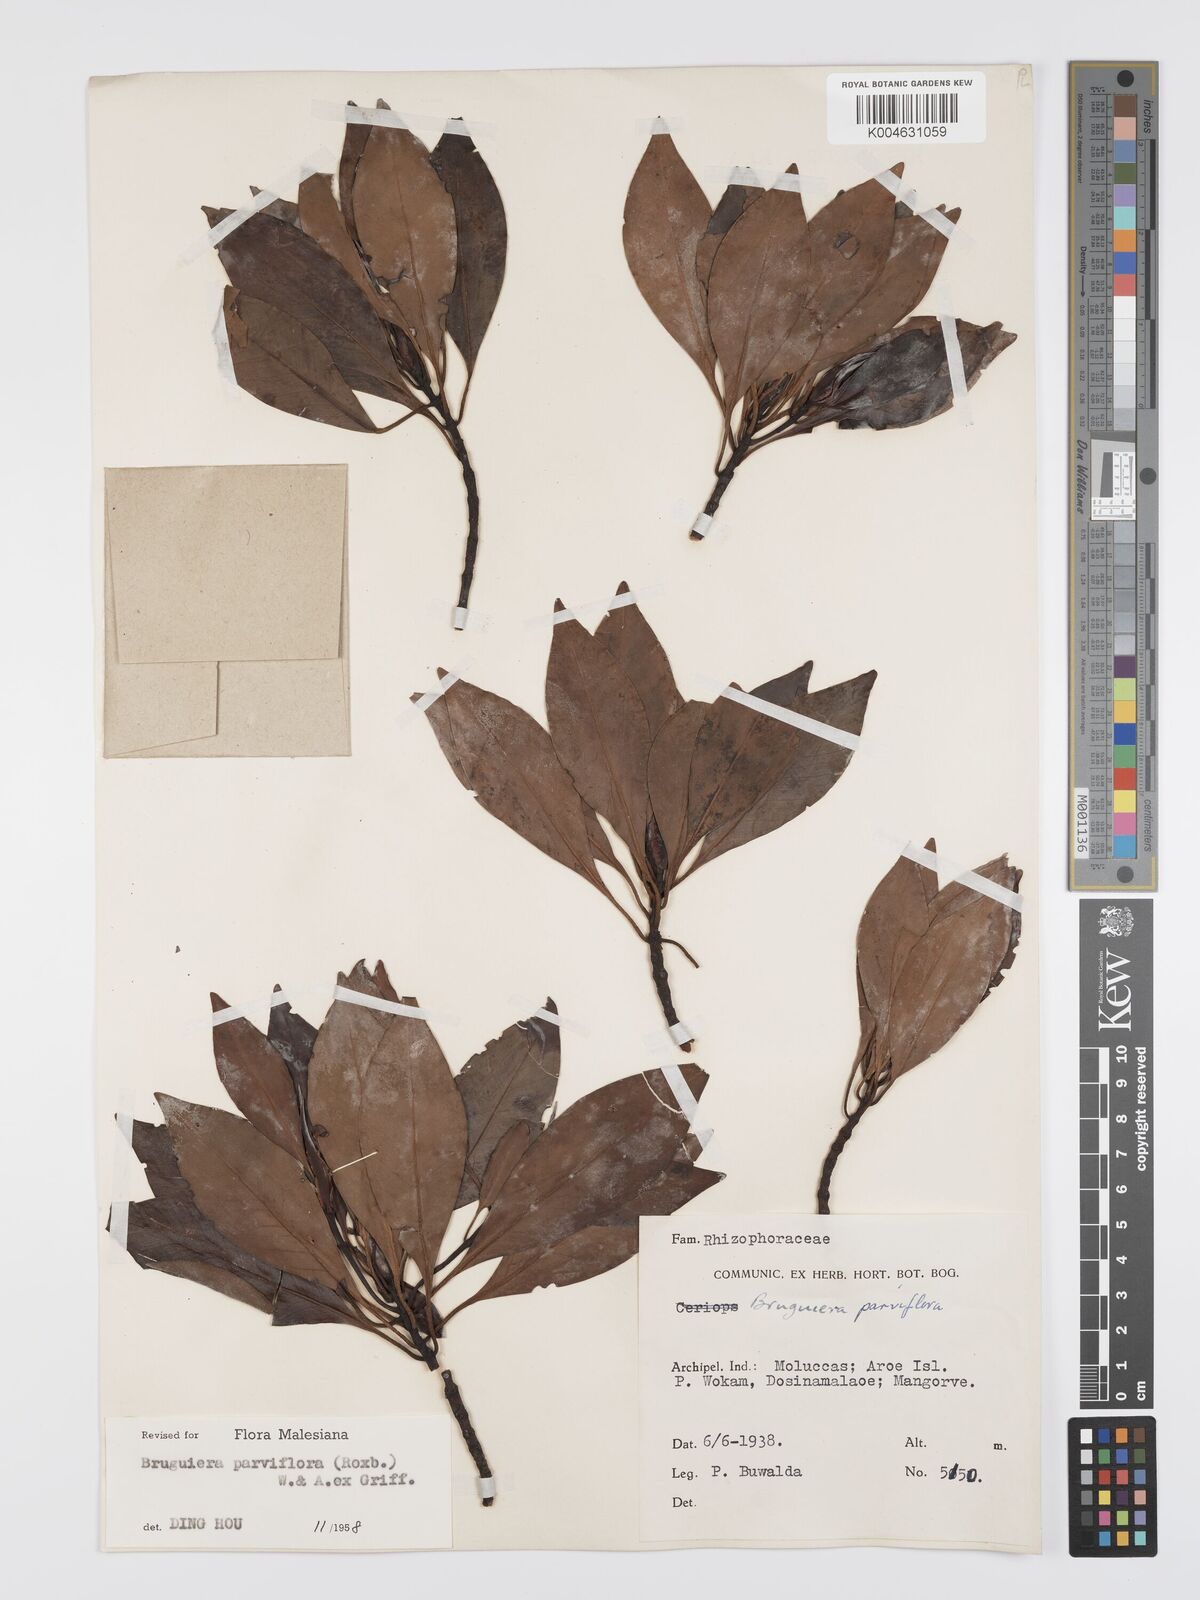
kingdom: Plantae
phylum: Tracheophyta
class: Magnoliopsida
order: Malpighiales
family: Rhizophoraceae
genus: Bruguiera
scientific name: Bruguiera parviflora
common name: Smallflower bruguiera
